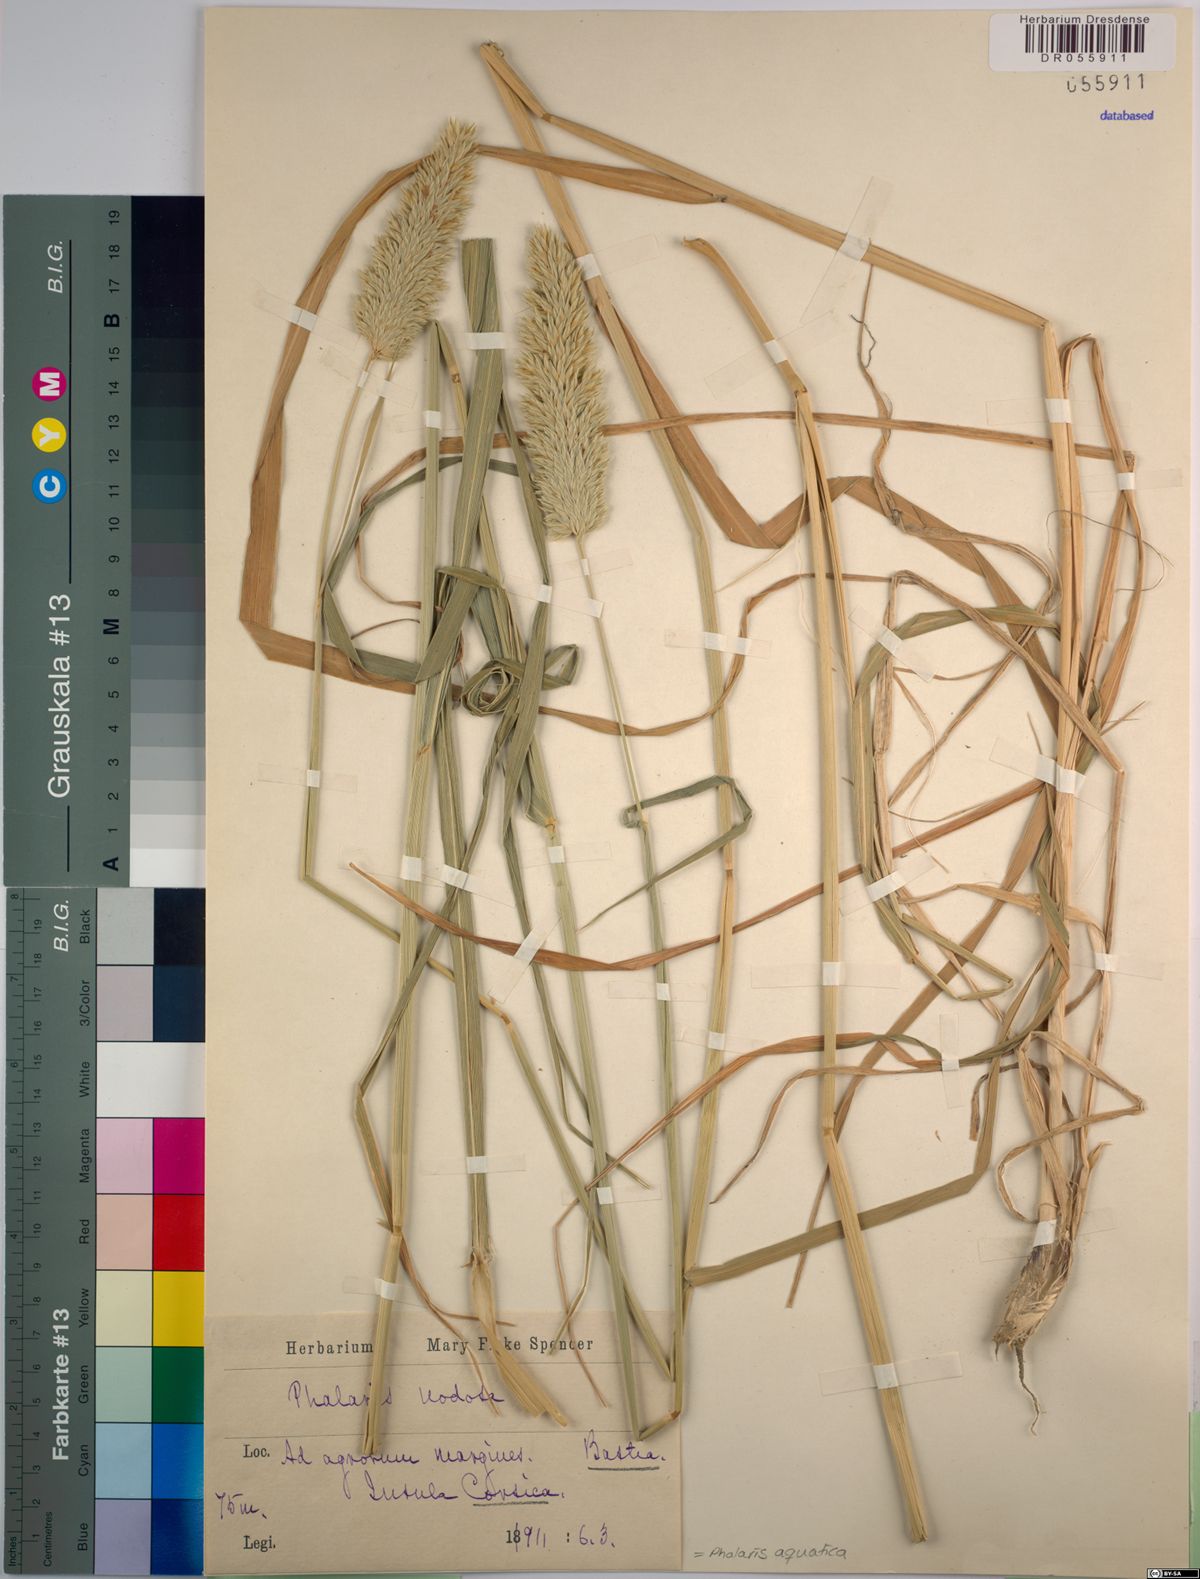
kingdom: Plantae
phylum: Tracheophyta
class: Liliopsida
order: Poales
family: Poaceae
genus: Phalaris
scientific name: Phalaris aquatica
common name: Bulbous canary-grass
